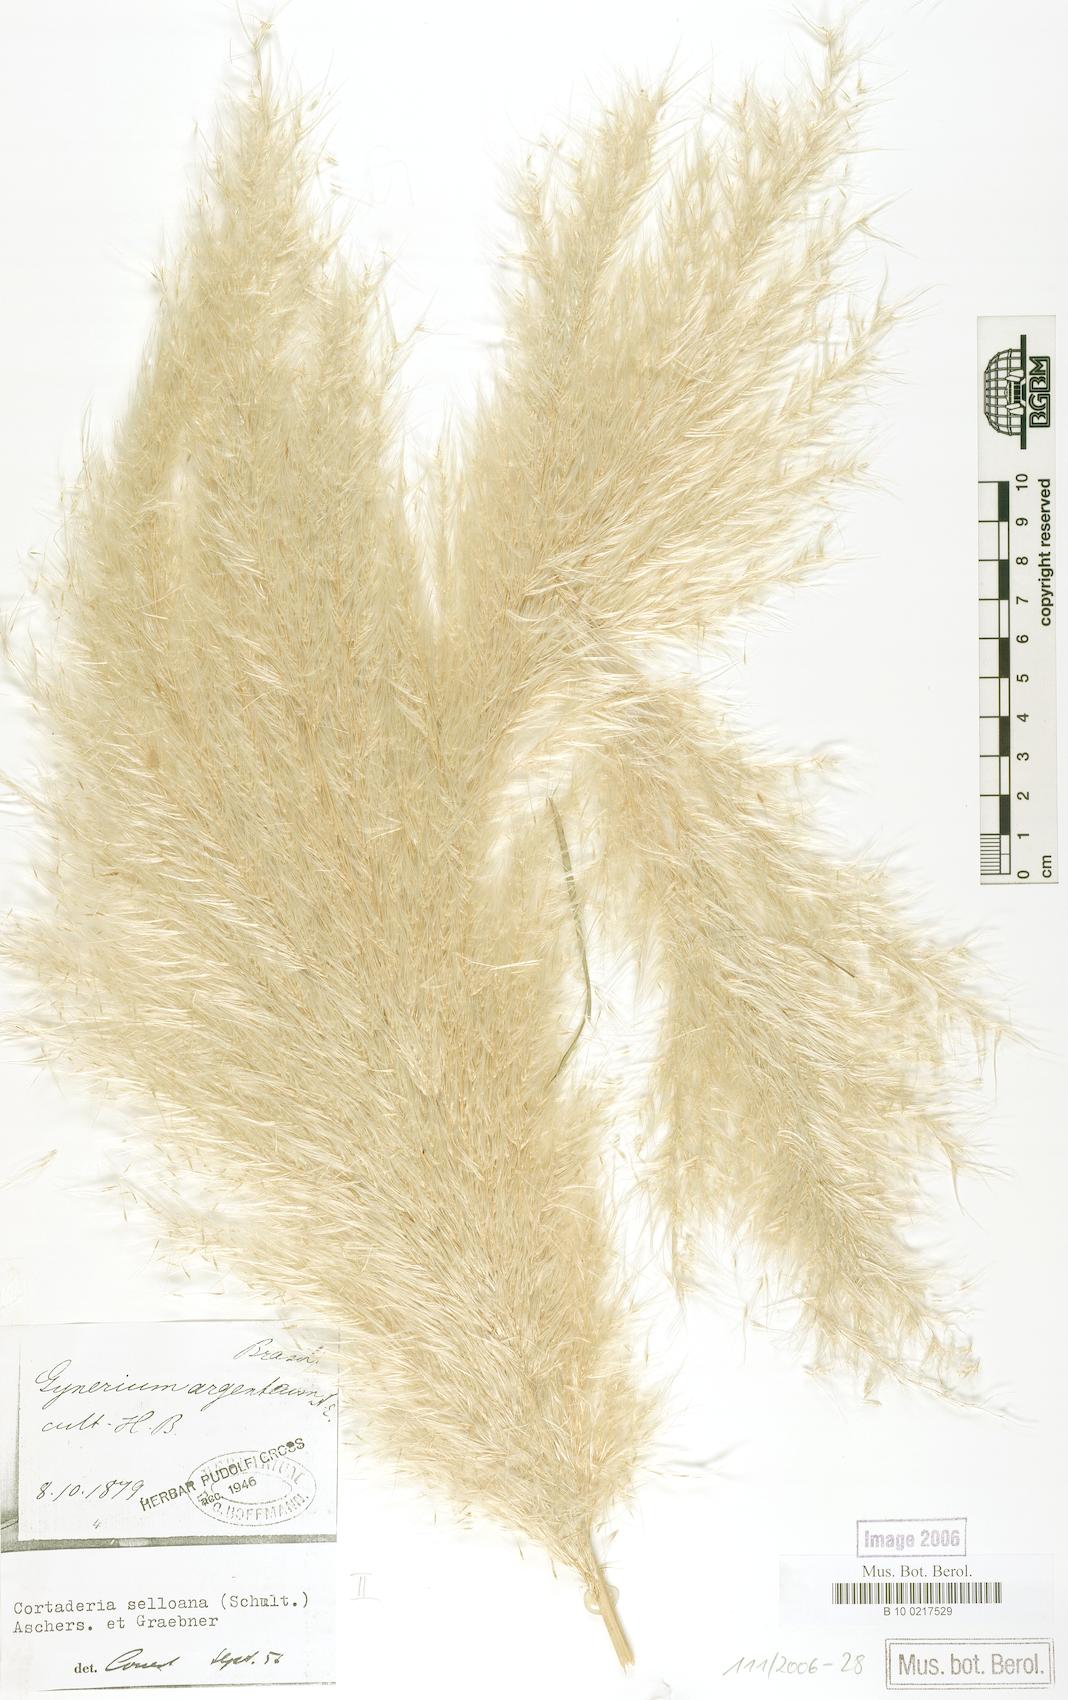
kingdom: Plantae
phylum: Tracheophyta
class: Liliopsida
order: Poales
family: Poaceae
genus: Cortaderia
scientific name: Cortaderia selloana
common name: Uruguayan pampas grass
